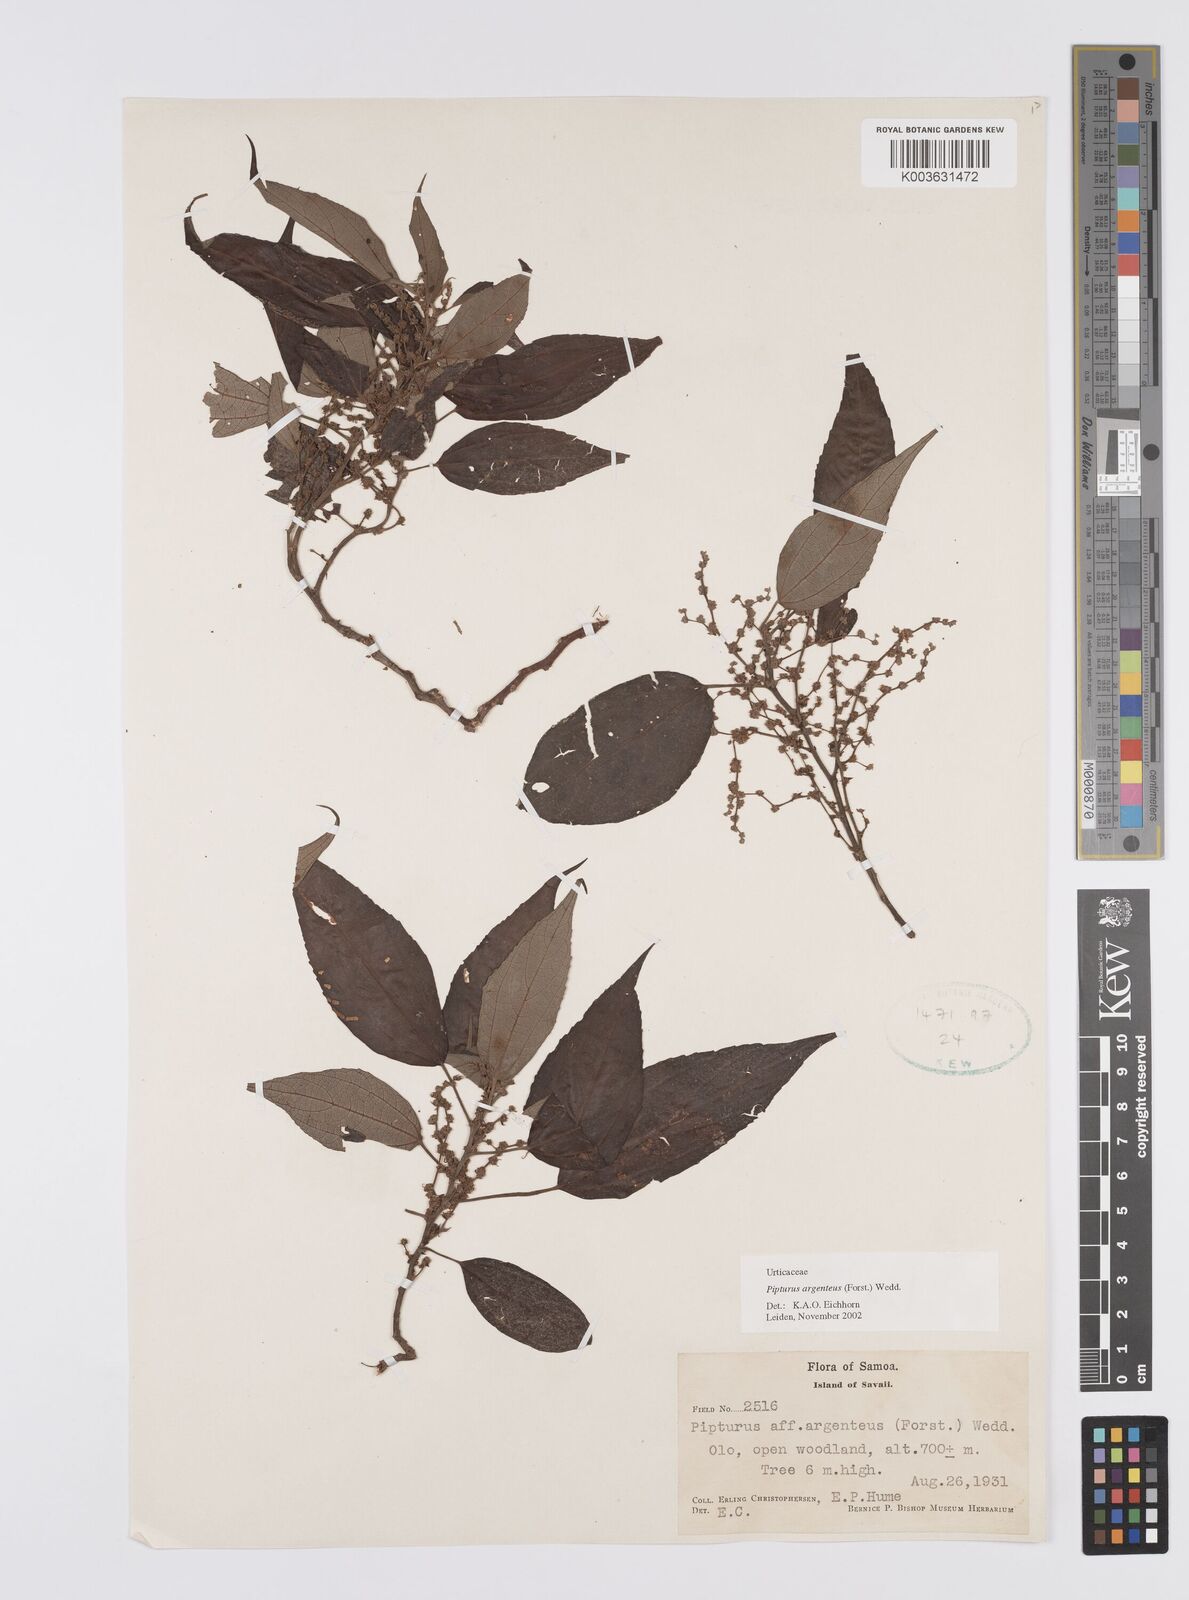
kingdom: Plantae
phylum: Tracheophyta
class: Magnoliopsida
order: Rosales
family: Urticaceae
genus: Pipturus
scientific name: Pipturus argenteus
